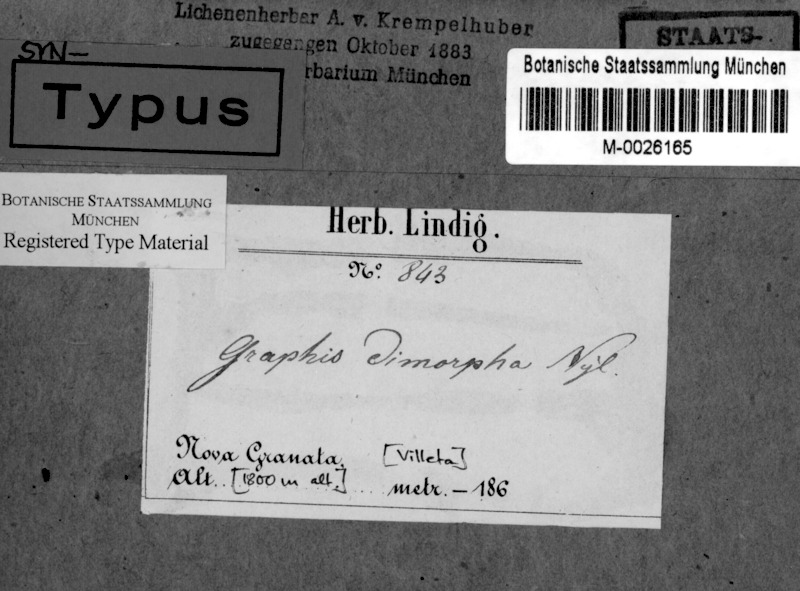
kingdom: Fungi
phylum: Ascomycota
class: Lecanoromycetes
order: Ostropales
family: Graphidaceae
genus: Platythecium
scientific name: Platythecium leiogramma
